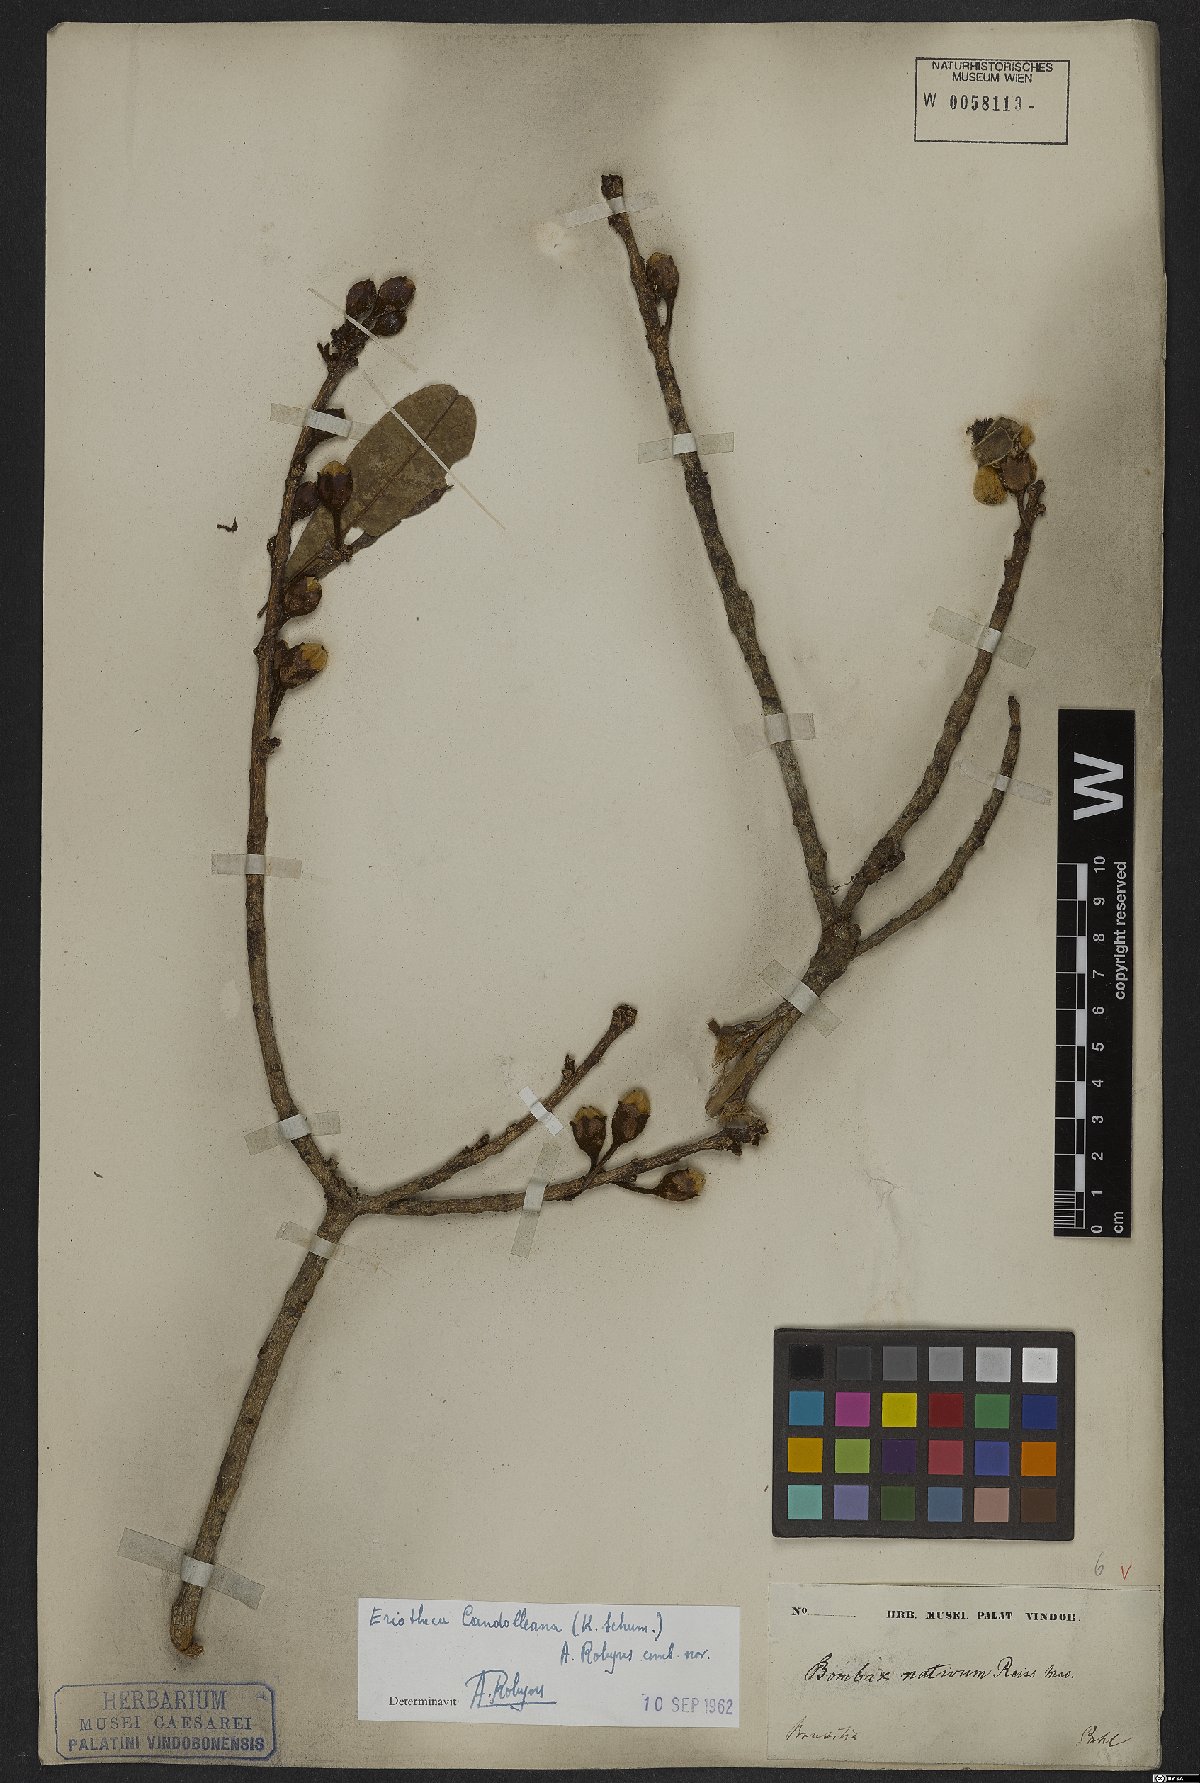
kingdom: Plantae
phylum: Tracheophyta
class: Magnoliopsida
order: Malvales
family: Malvaceae
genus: Eriotheca
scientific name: Eriotheca candolleana
